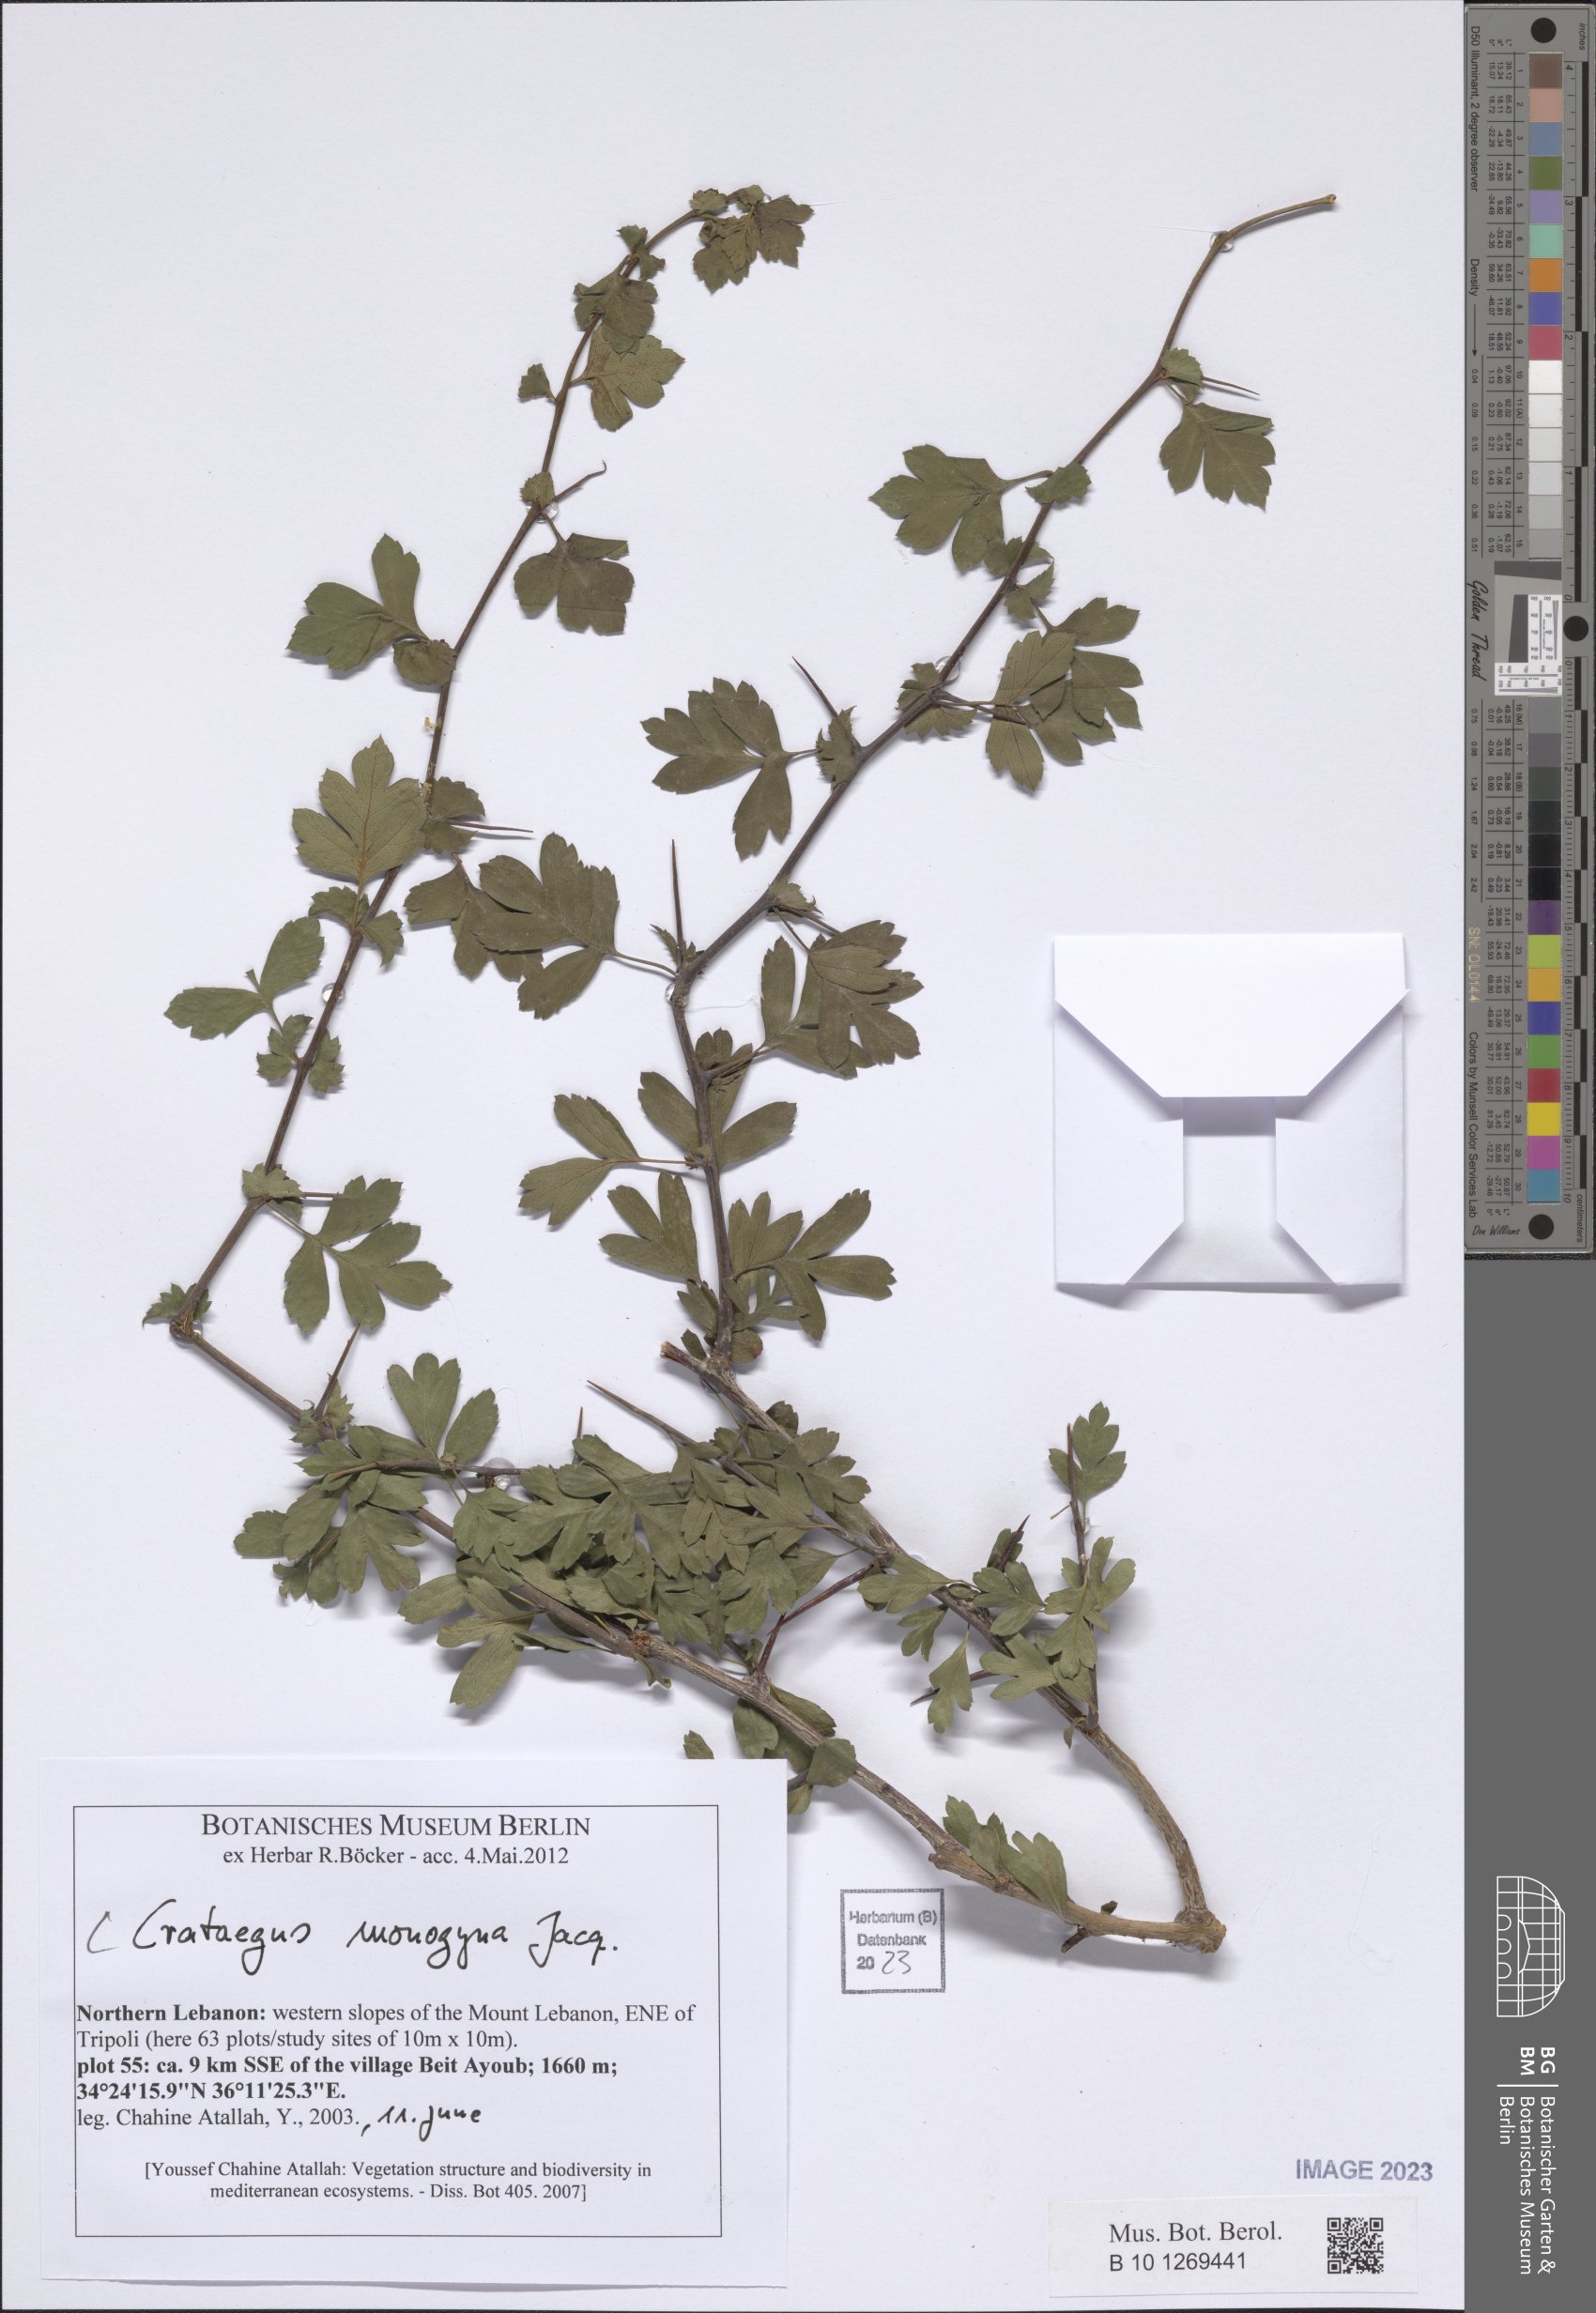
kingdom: Plantae
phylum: Tracheophyta
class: Magnoliopsida
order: Rosales
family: Rosaceae
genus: Crataegus
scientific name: Crataegus monogyna
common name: Hawthorn
